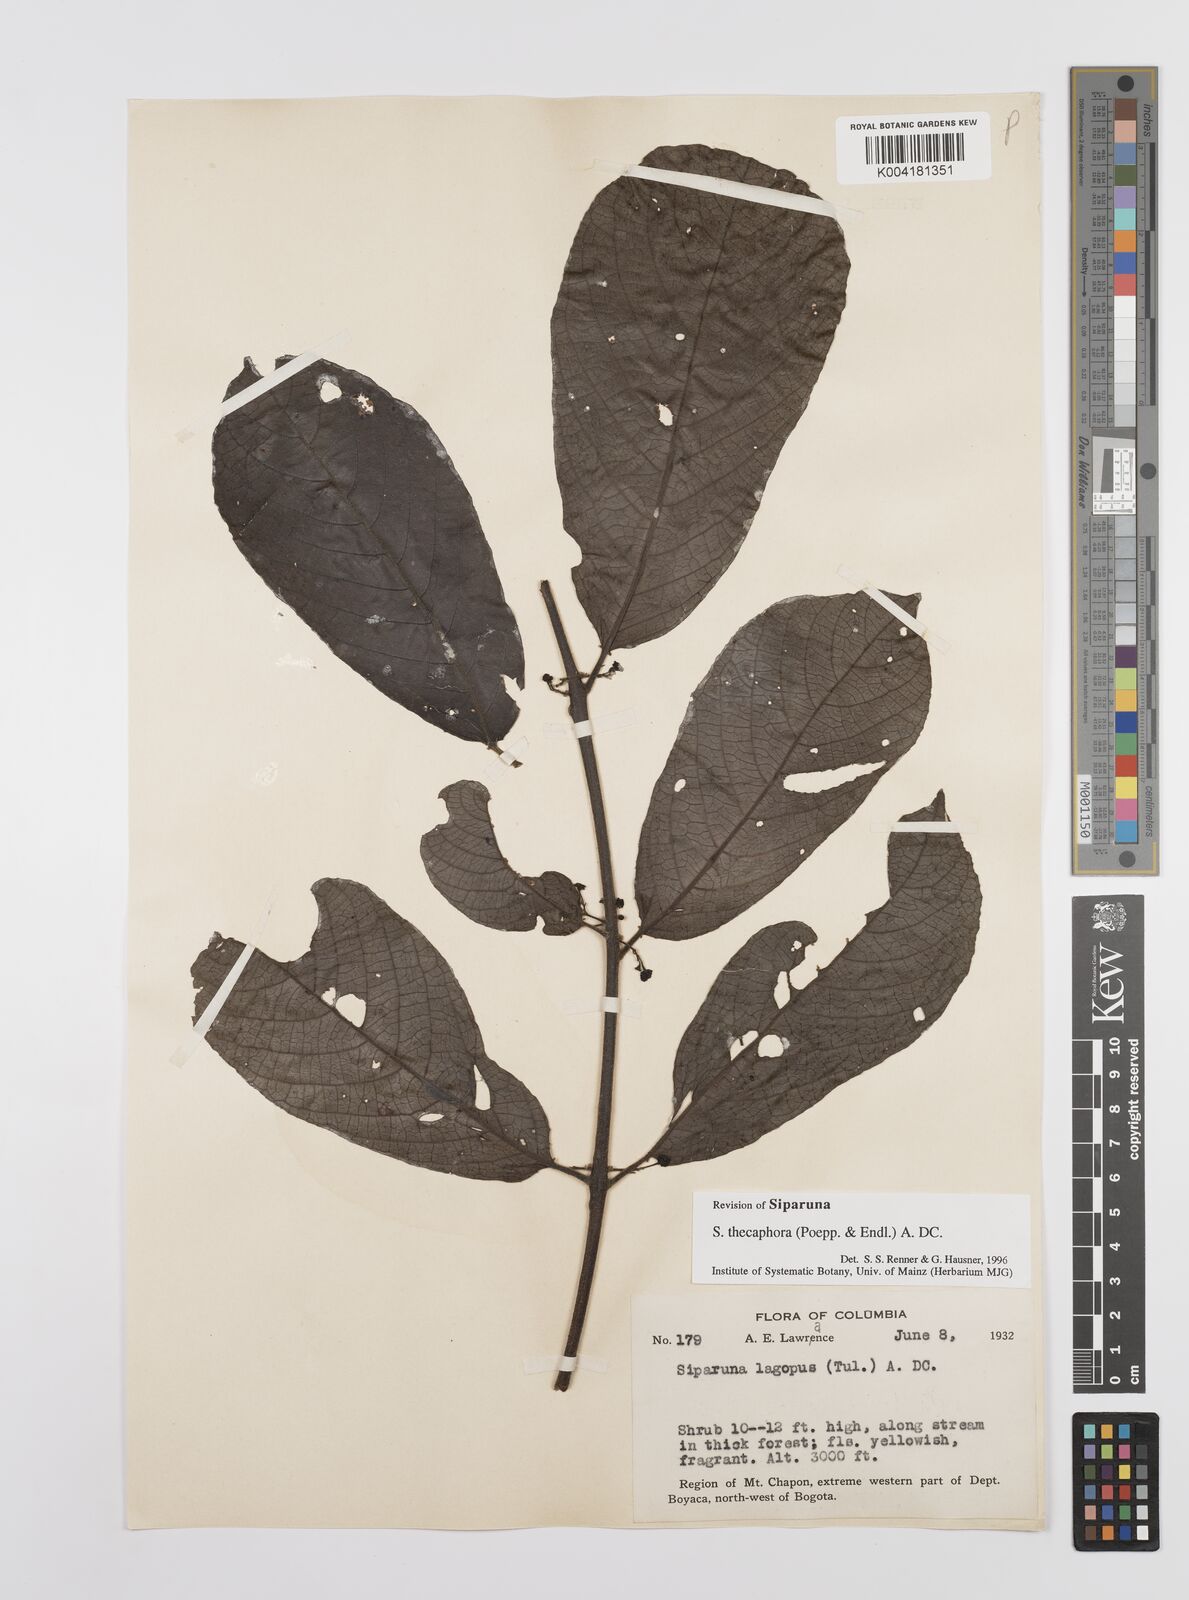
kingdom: Plantae
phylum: Tracheophyta
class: Magnoliopsida
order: Laurales
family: Siparunaceae
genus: Siparuna
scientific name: Siparuna thecaphora
